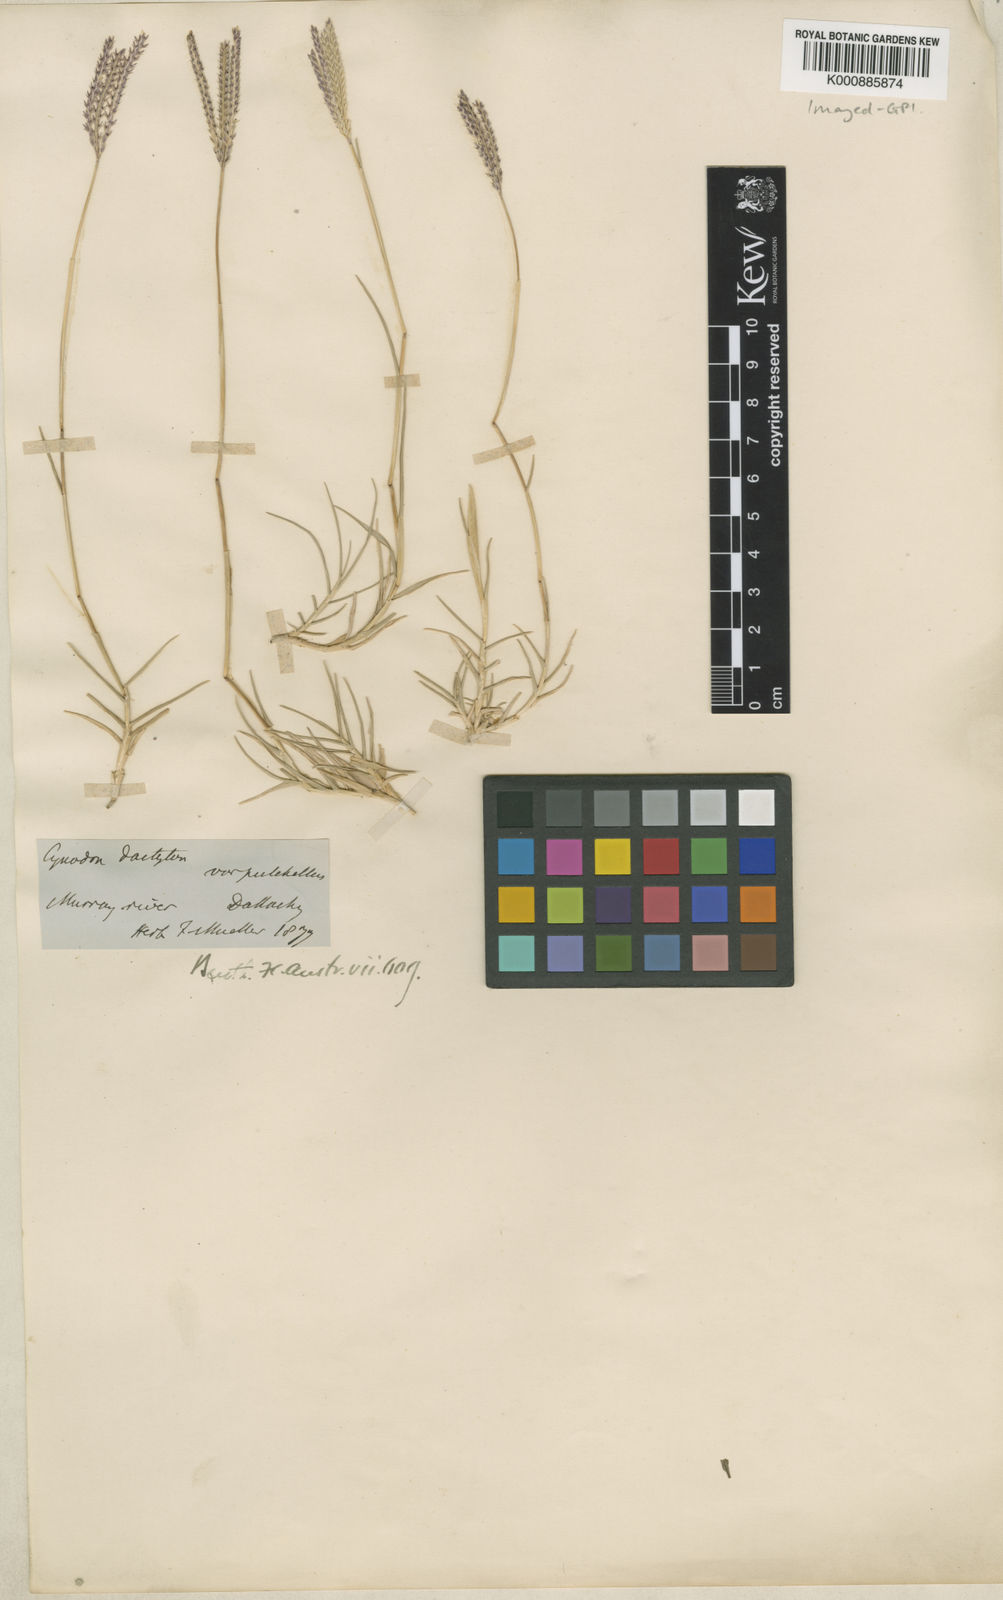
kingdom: Plantae
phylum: Tracheophyta
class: Liliopsida
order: Poales
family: Poaceae
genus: Cynodon
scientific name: Cynodon dactylon
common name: Bermuda grass
